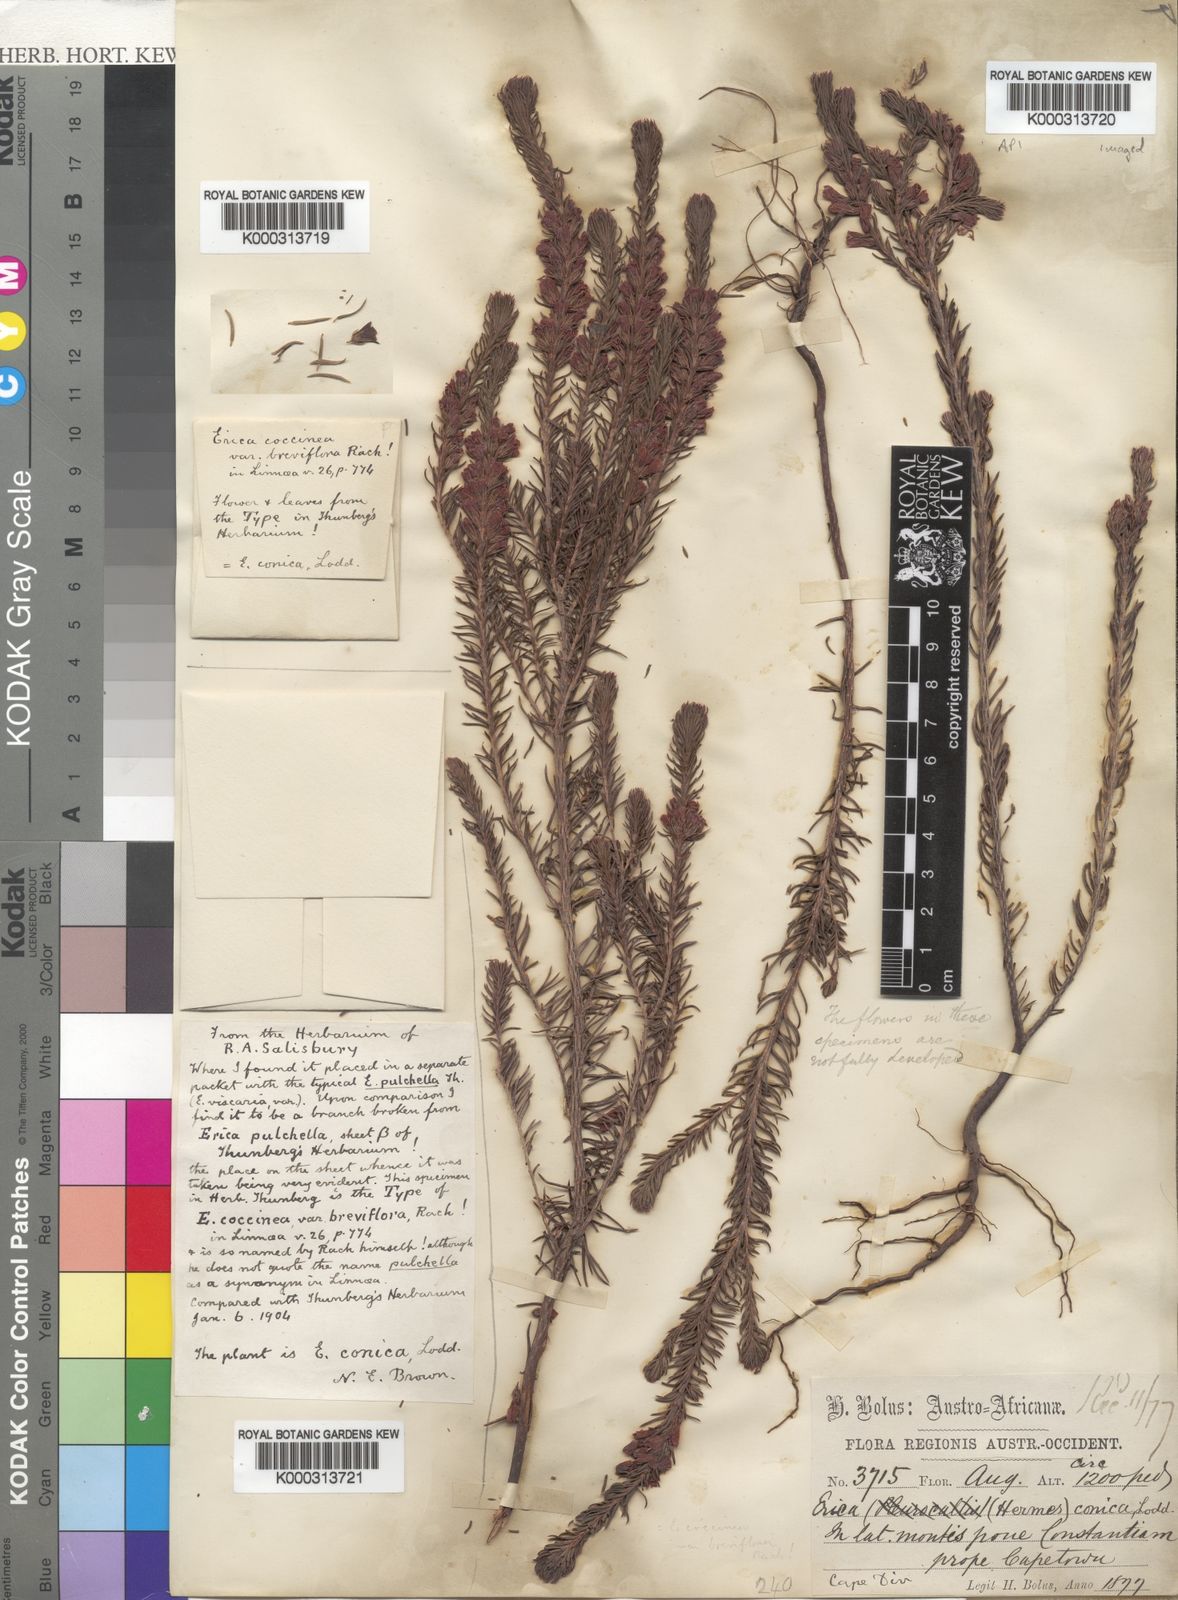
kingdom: Plantae
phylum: Tracheophyta
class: Magnoliopsida
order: Ericales
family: Ericaceae
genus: Erica
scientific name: Erica
